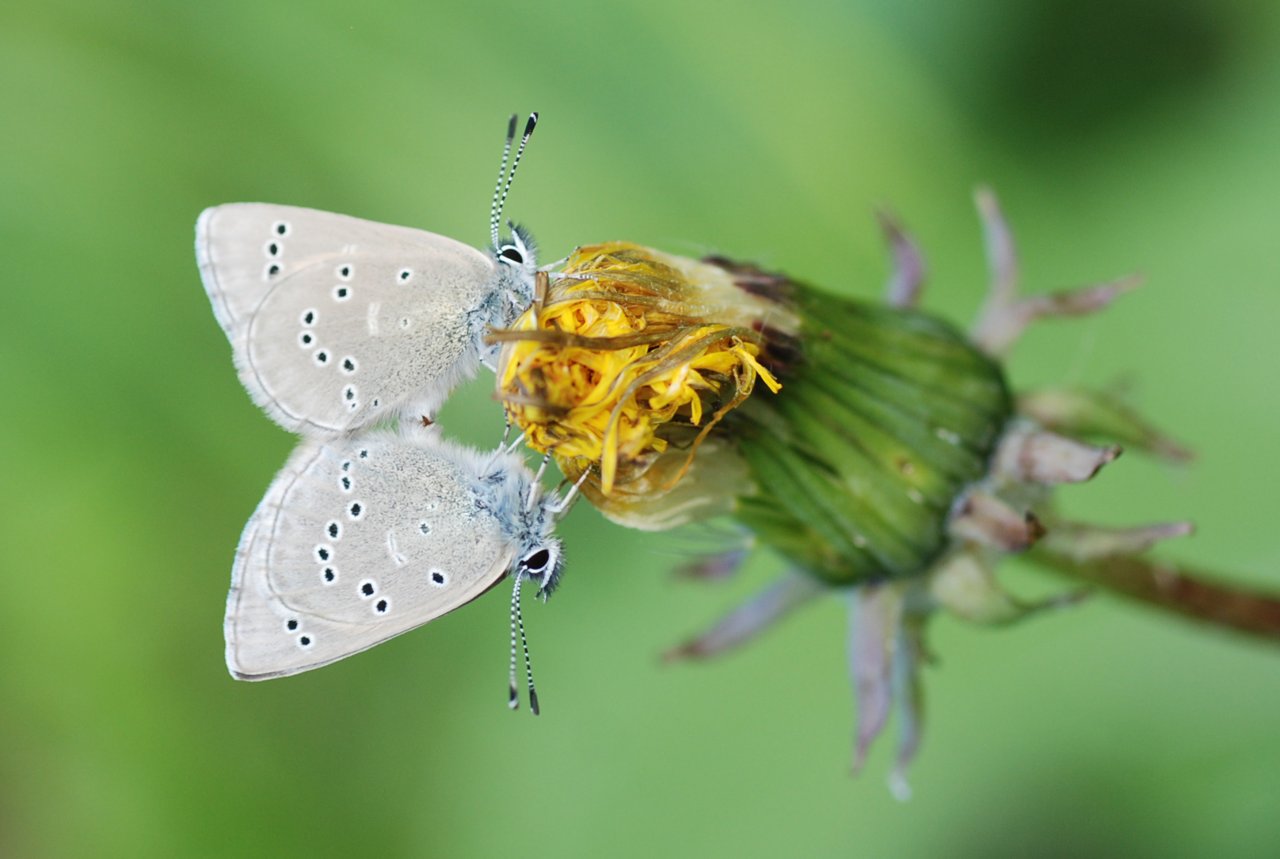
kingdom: Animalia
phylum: Arthropoda
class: Insecta
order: Lepidoptera
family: Lycaenidae
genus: Glaucopsyche
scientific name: Glaucopsyche lygdamus
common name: Silvery Blue
